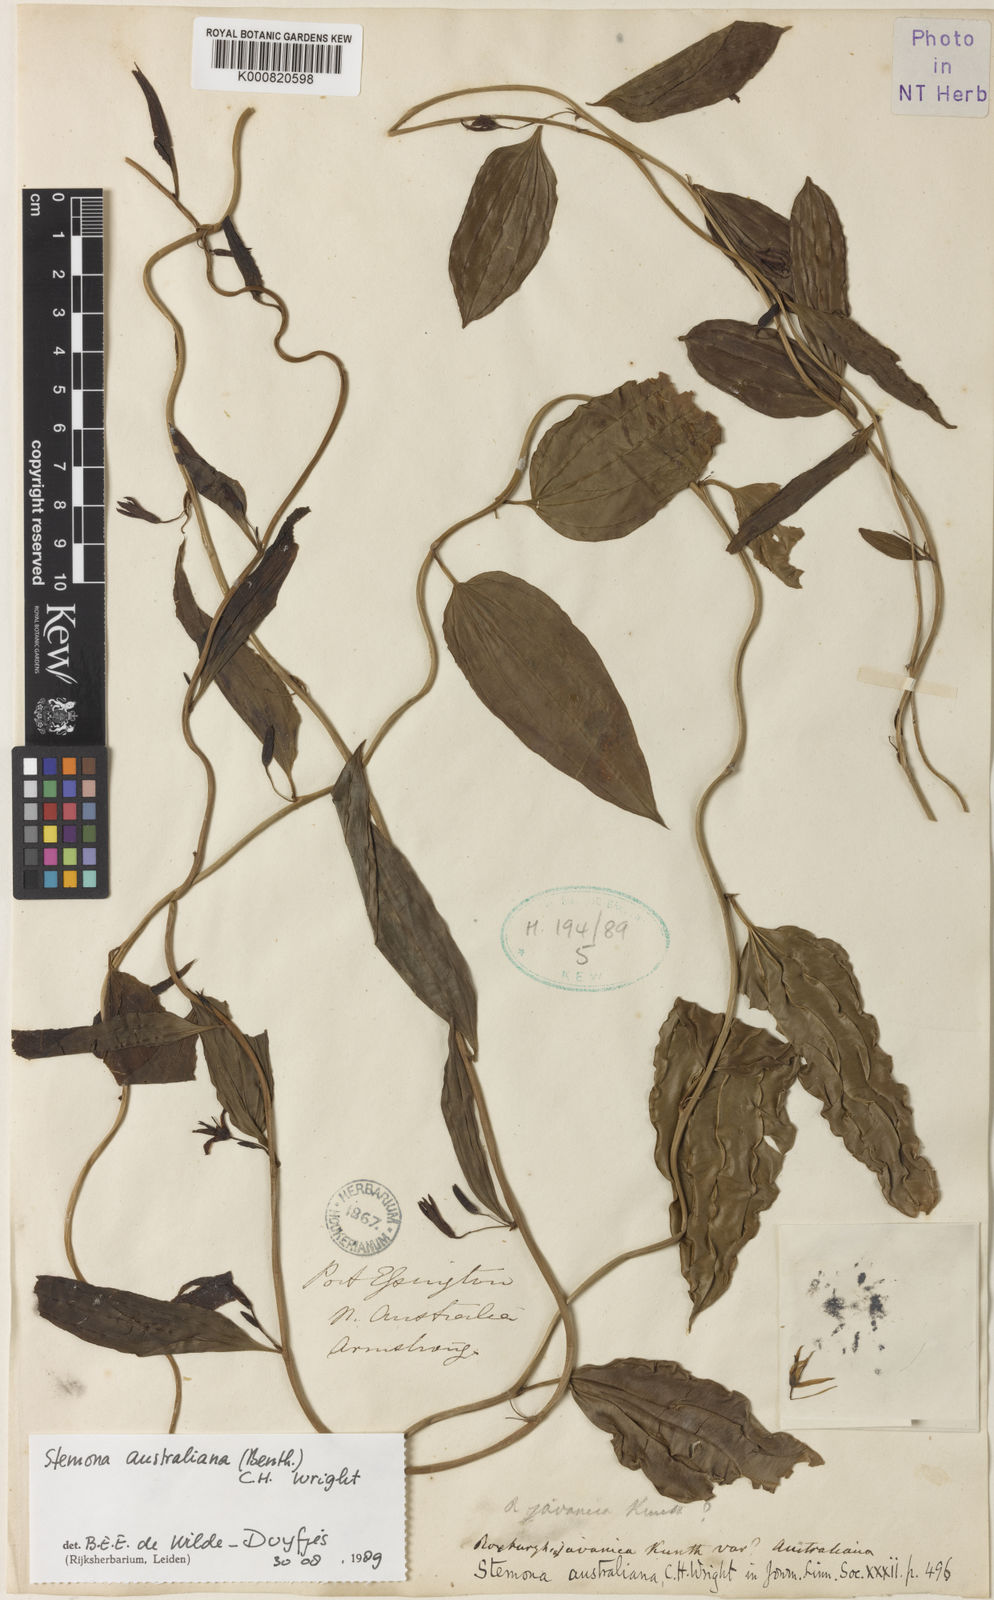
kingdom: Plantae
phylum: Tracheophyta
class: Liliopsida
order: Pandanales
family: Stemonaceae
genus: Stemona
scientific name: Stemona australiana
